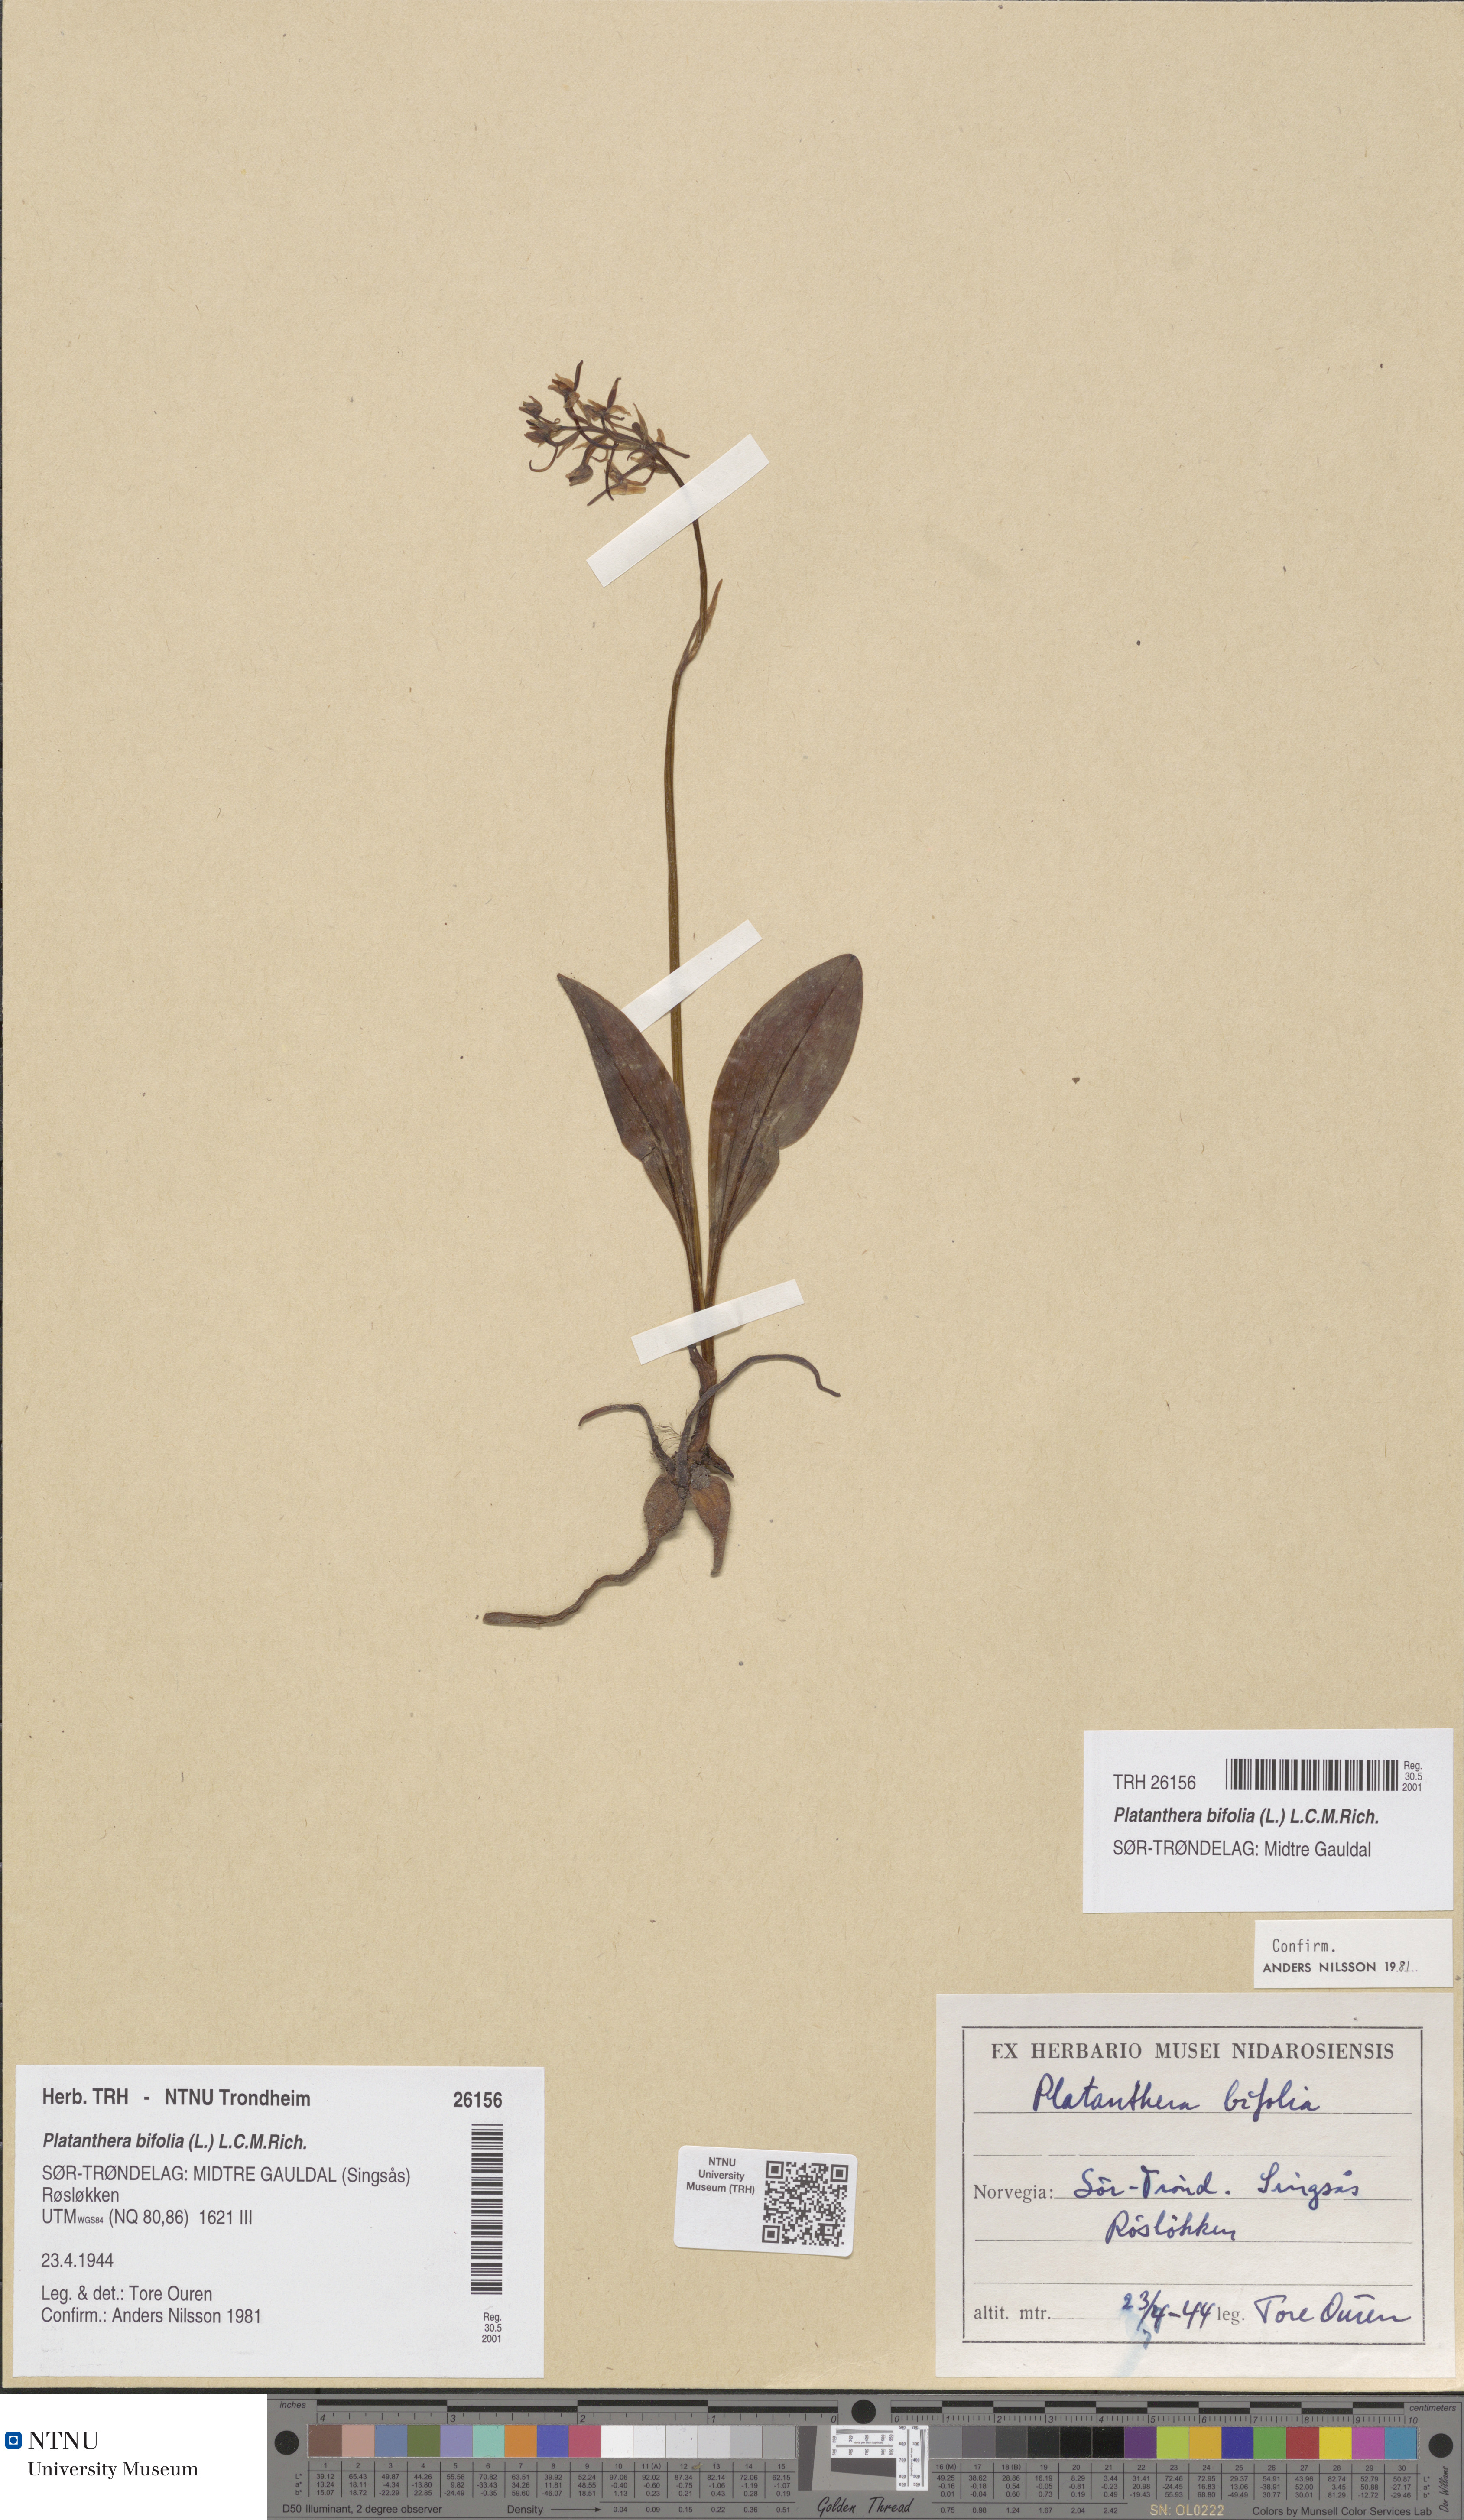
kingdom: Plantae
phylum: Tracheophyta
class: Liliopsida
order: Asparagales
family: Orchidaceae
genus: Platanthera
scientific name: Platanthera bifolia
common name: Lesser butterfly-orchid
